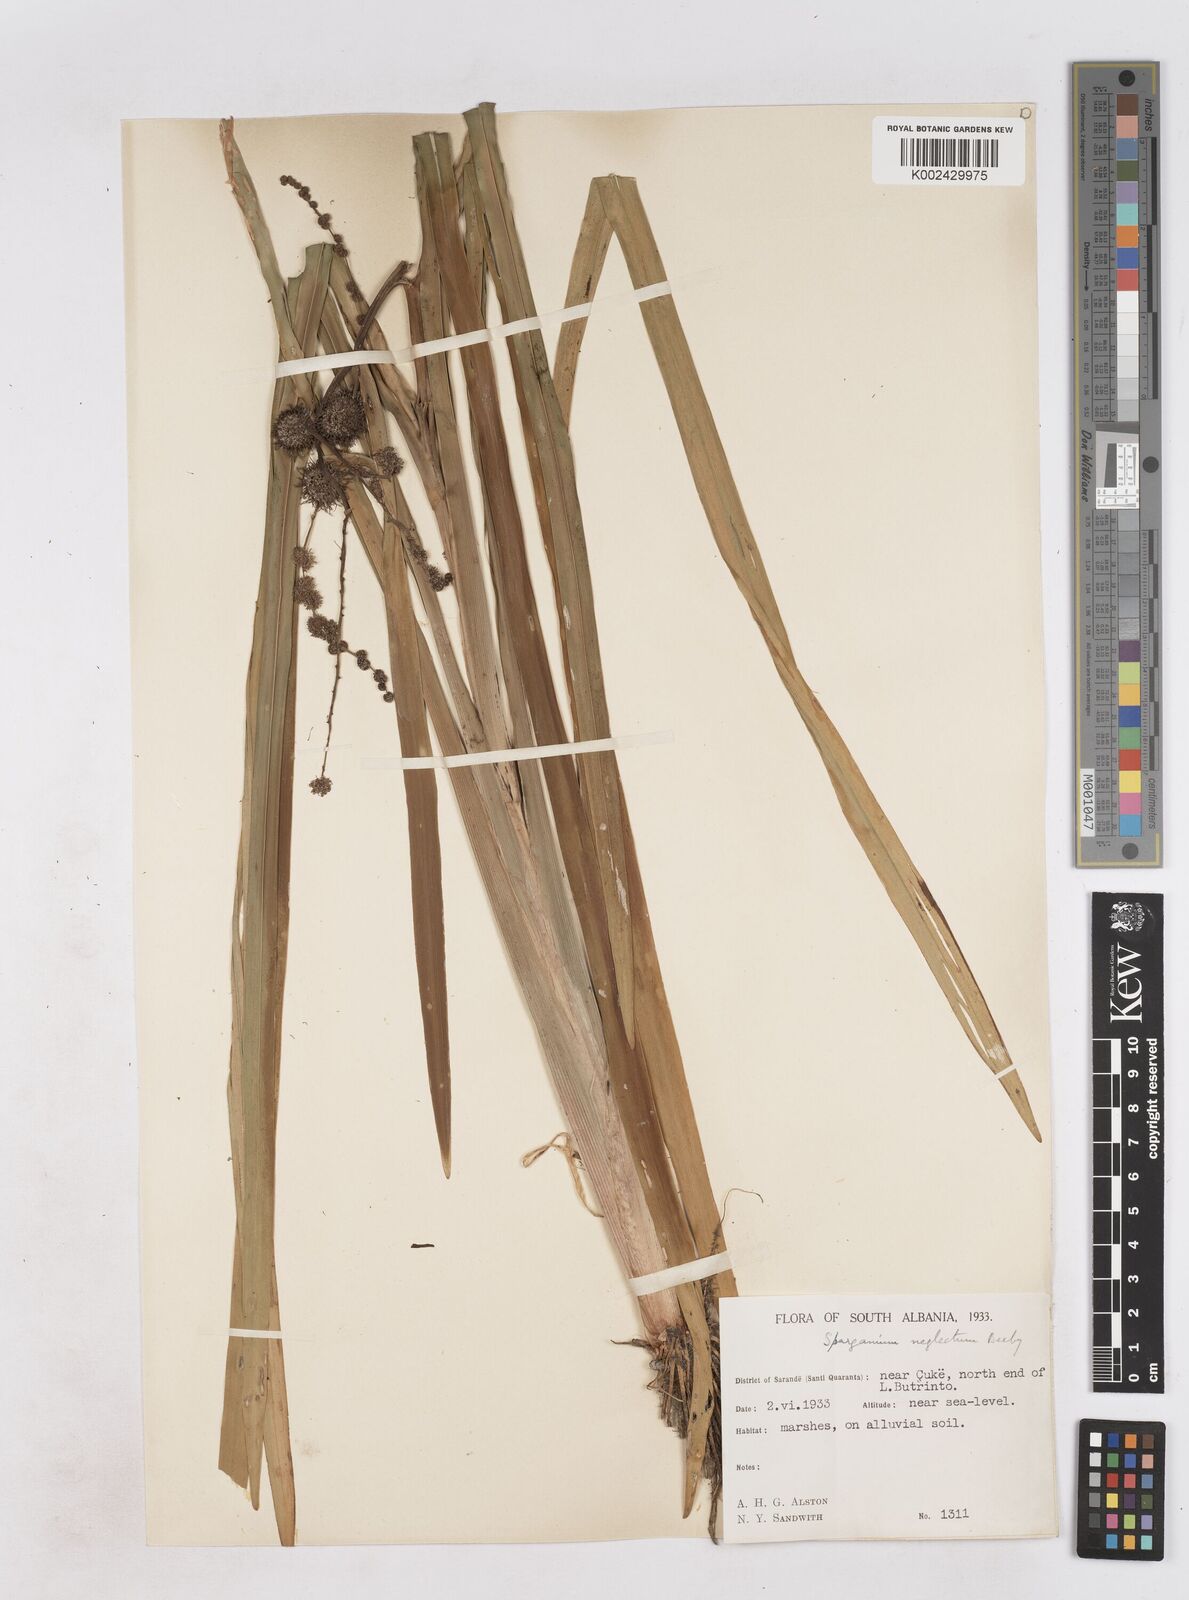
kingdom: Plantae
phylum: Tracheophyta
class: Liliopsida
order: Poales
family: Typhaceae
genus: Sparganium
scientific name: Sparganium erectum
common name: Branched bur-reed
